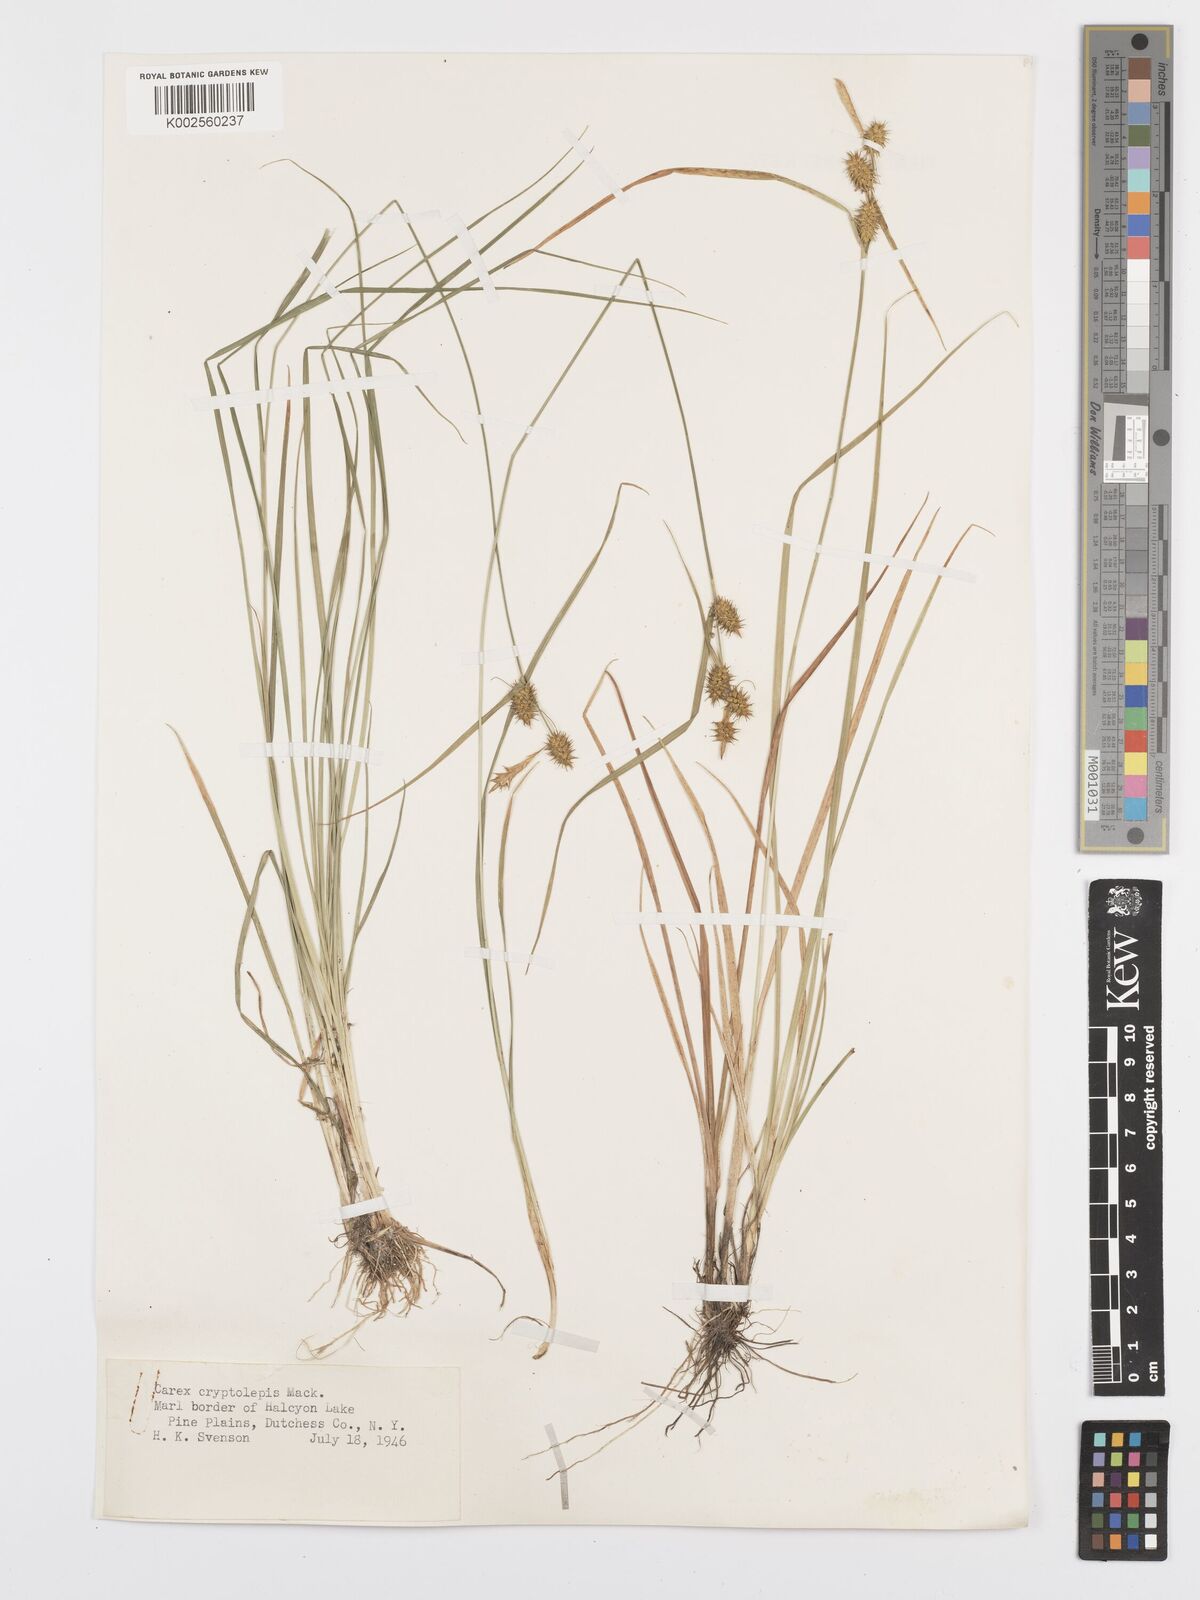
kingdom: Plantae
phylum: Tracheophyta
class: Liliopsida
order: Poales
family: Cyperaceae
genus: Carex
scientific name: Carex cryptolepis
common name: Northeastern sedge
